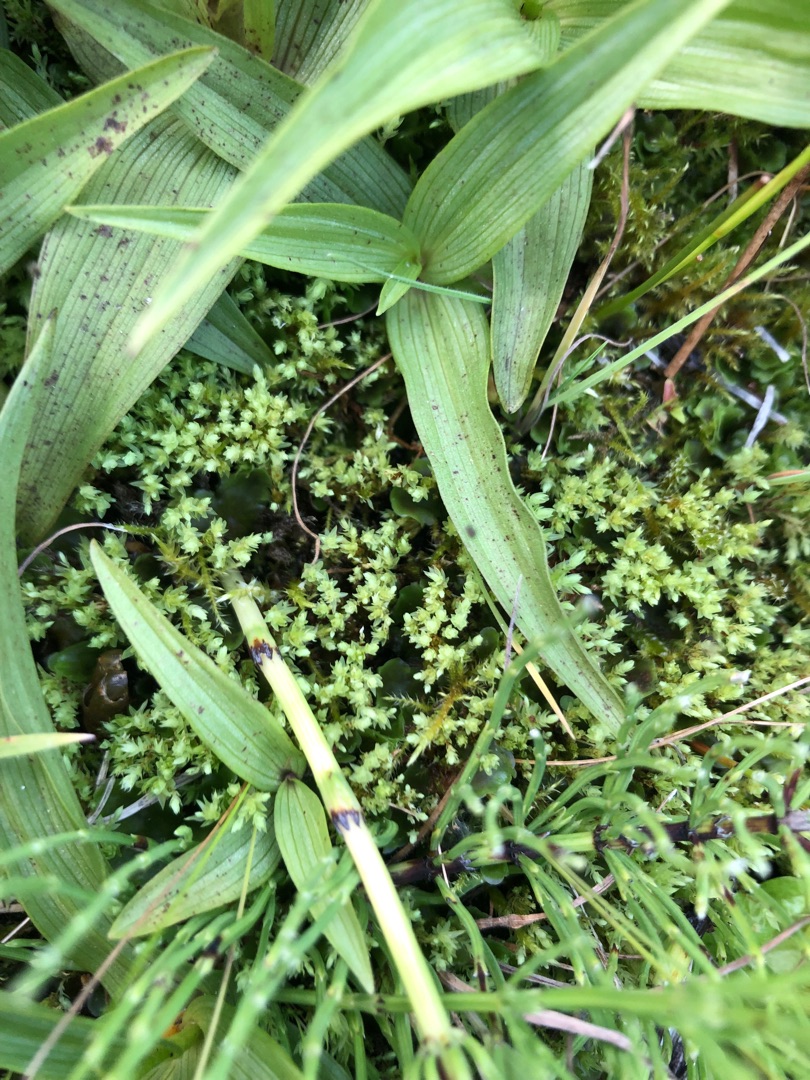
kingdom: Plantae
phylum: Bryophyta
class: Bryopsida
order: Bryales
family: Mniaceae
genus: Pohlia
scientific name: Pohlia wahlenbergii
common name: Lysegrøn voksmos
